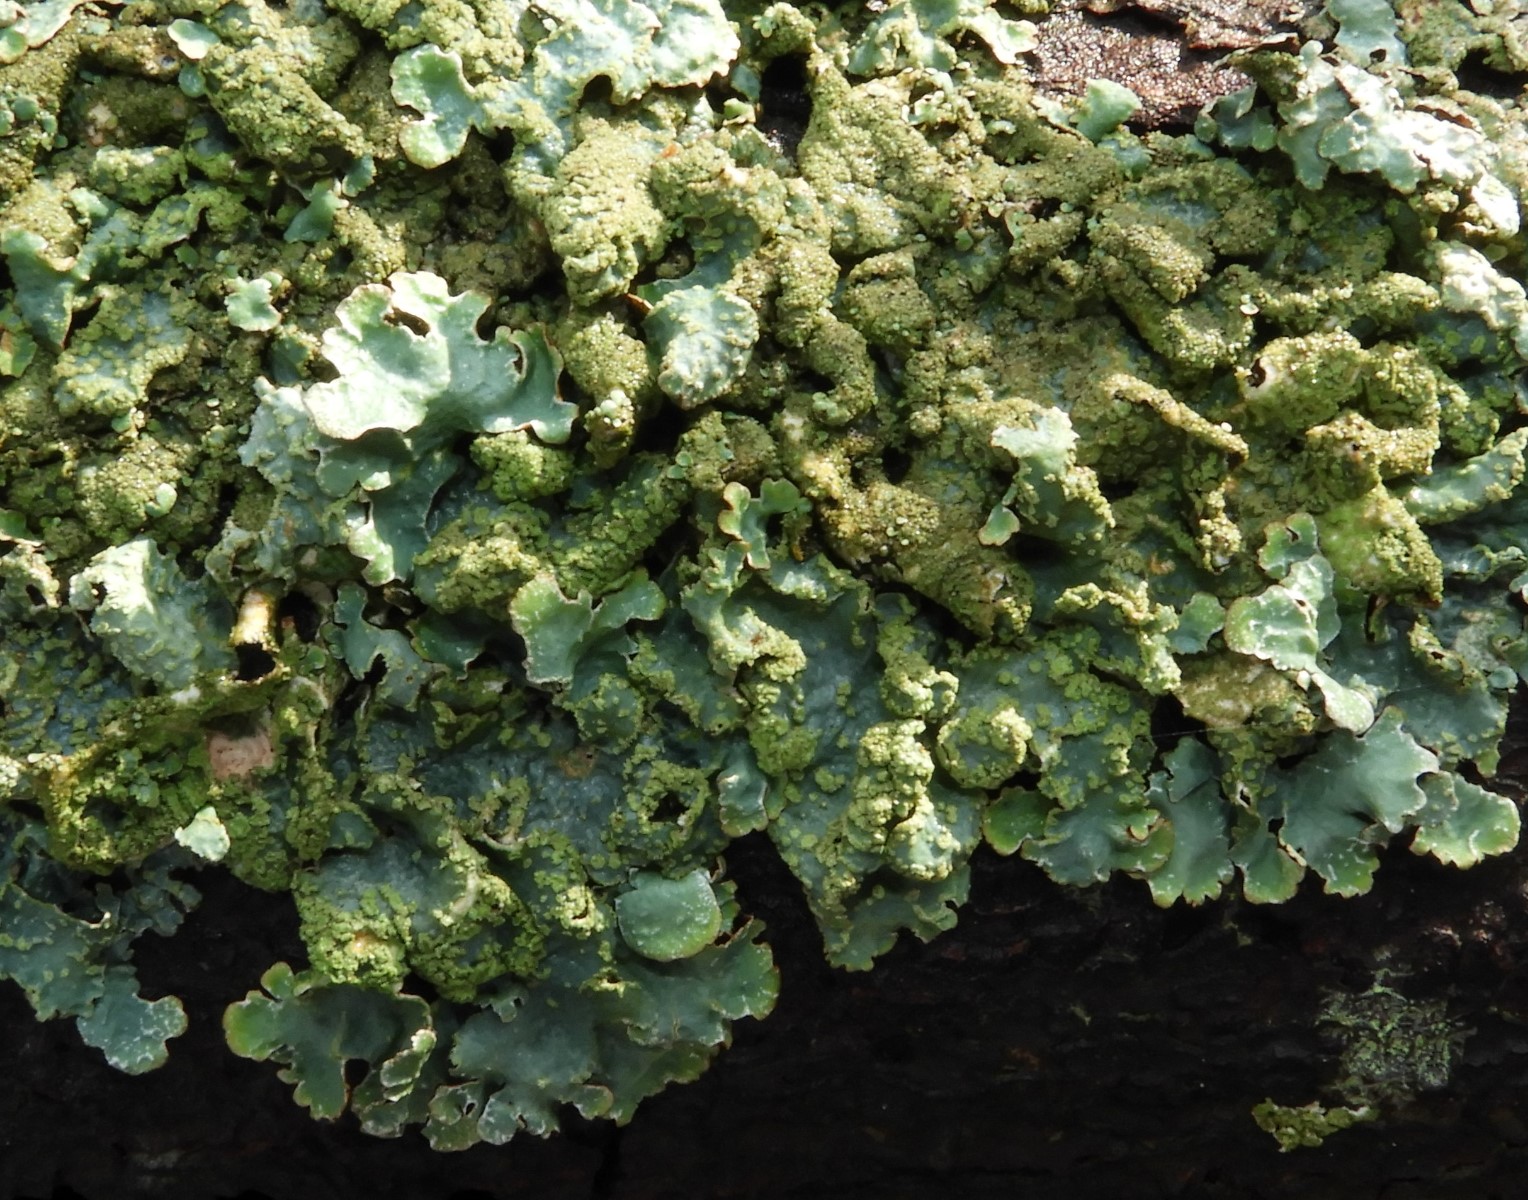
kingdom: Fungi
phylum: Ascomycota
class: Lecanoromycetes
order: Lecanorales
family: Parmeliaceae
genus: Parmelia
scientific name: Parmelia sulcata
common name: rynket skållav
